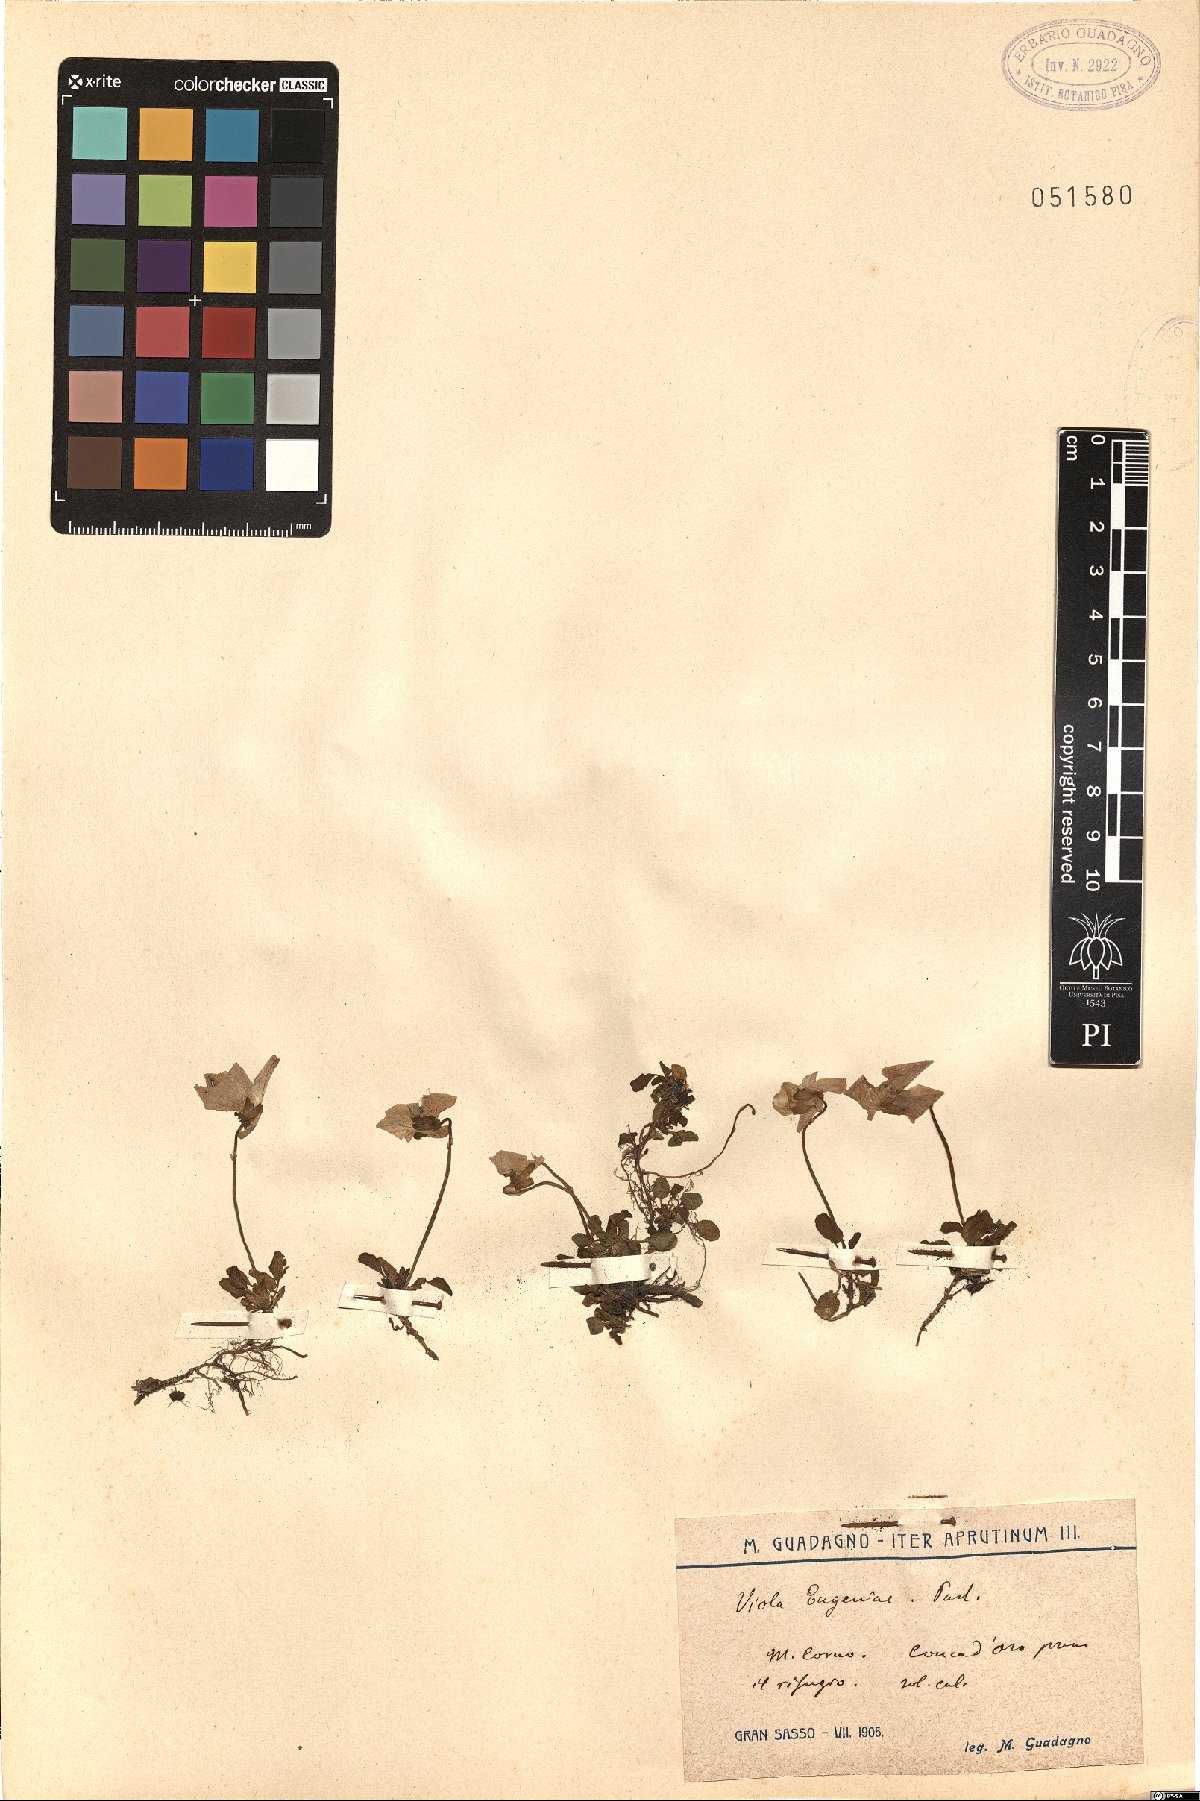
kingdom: Plantae
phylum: Tracheophyta
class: Magnoliopsida
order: Malpighiales
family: Violaceae
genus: Viola
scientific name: Viola eugeniae
